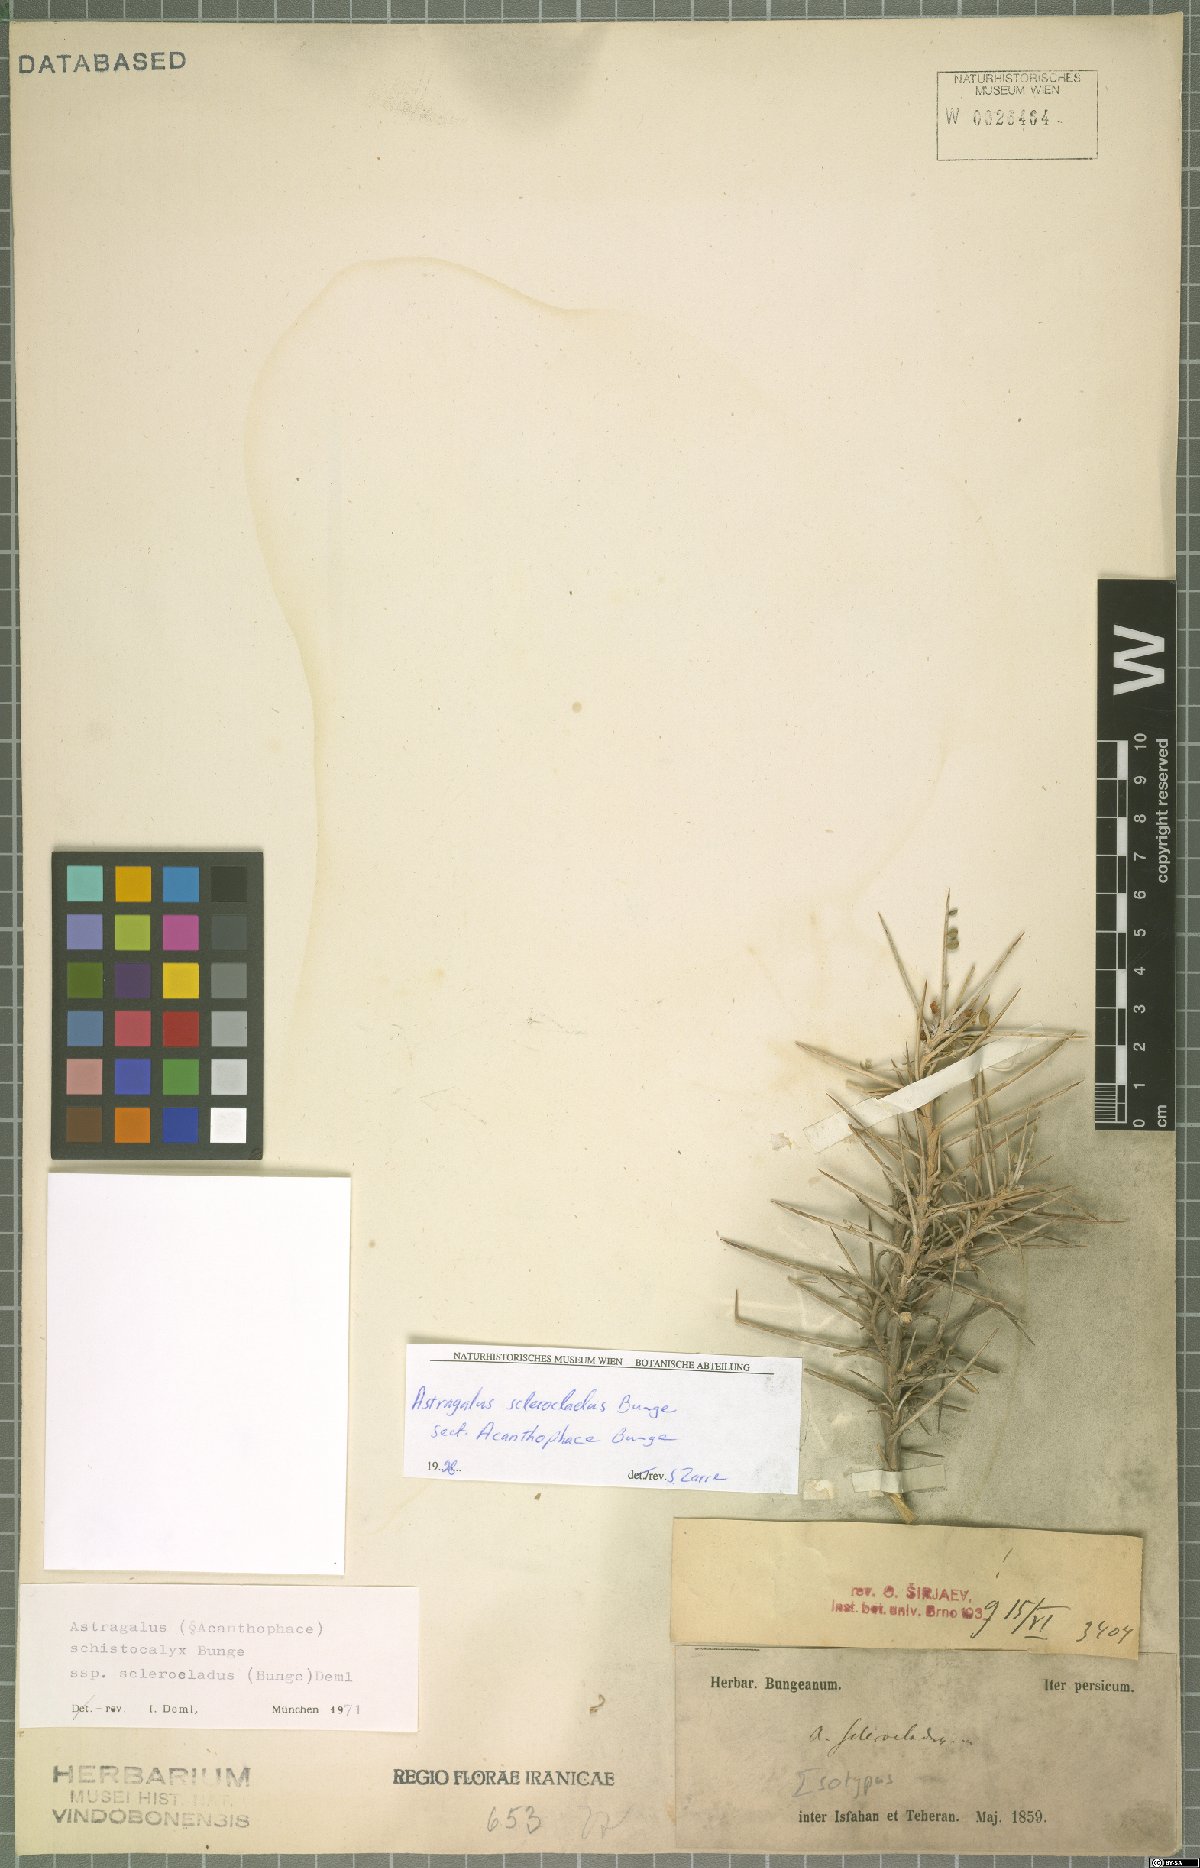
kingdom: Plantae
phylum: Tracheophyta
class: Magnoliopsida
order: Fabales
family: Fabaceae
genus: Astragalus
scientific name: Astragalus sclerocladus
